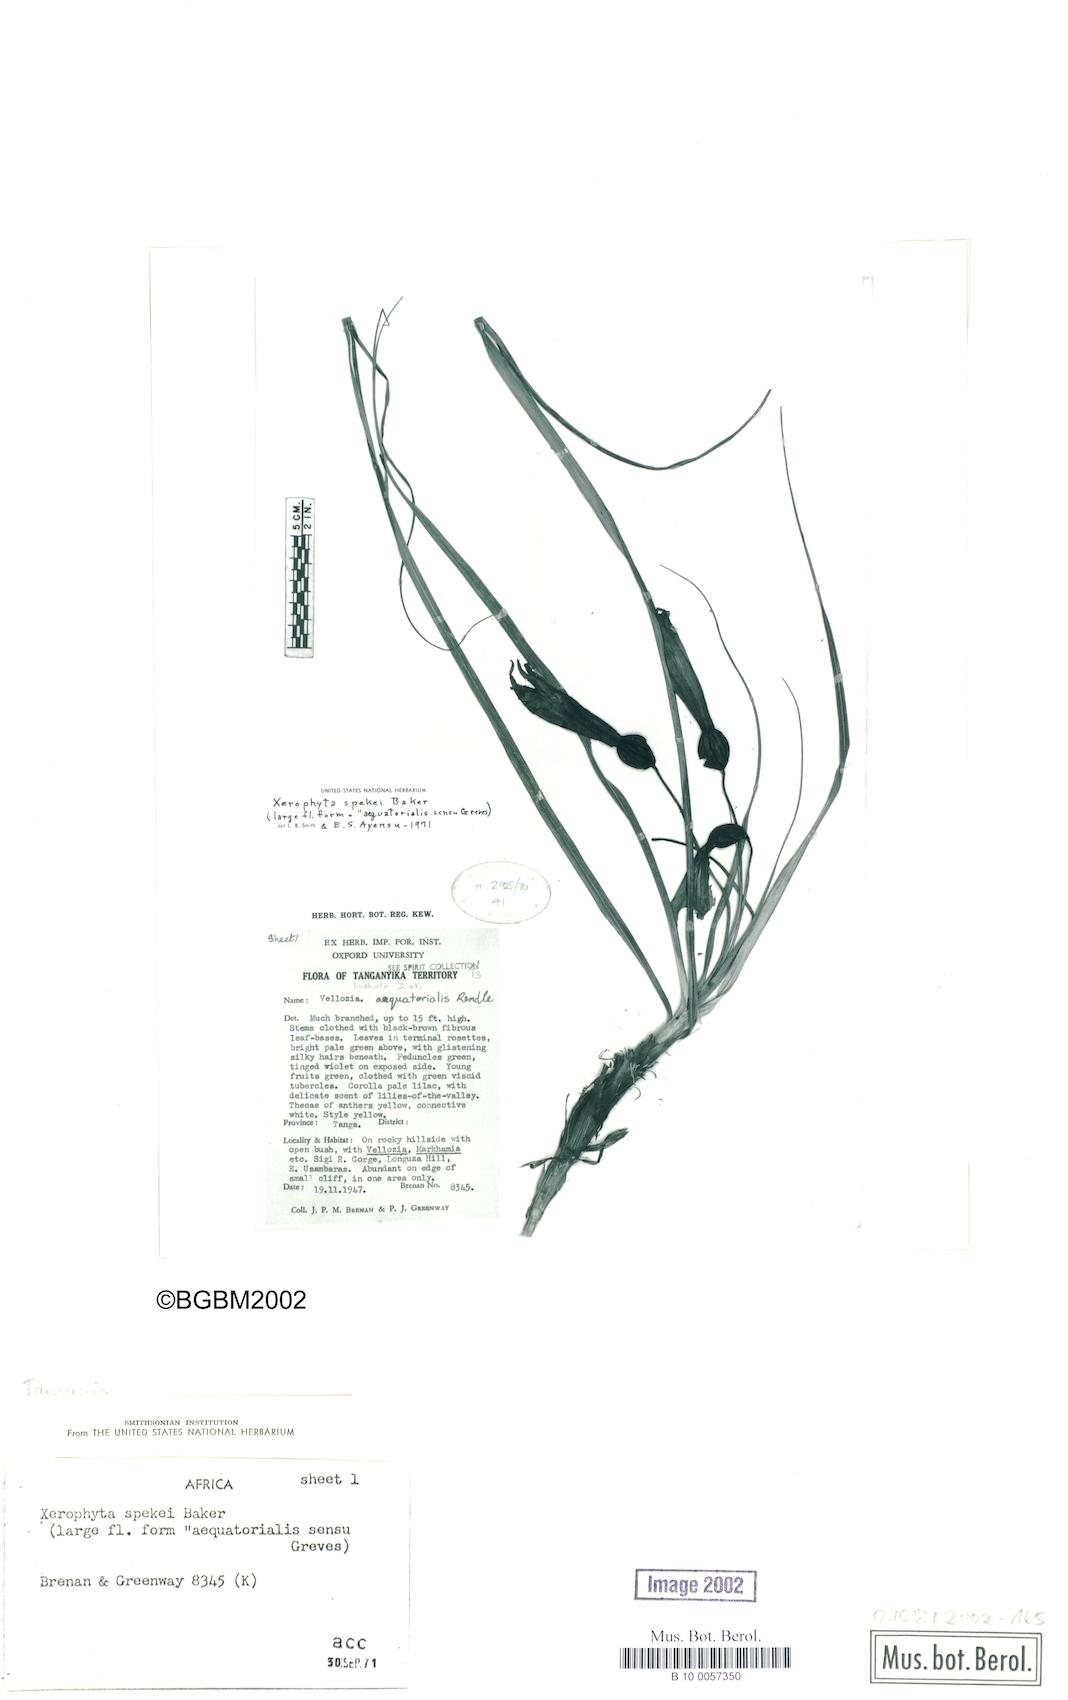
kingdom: Plantae
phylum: Tracheophyta
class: Liliopsida
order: Pandanales
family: Velloziaceae
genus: Xerophyta
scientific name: Xerophyta spekei
